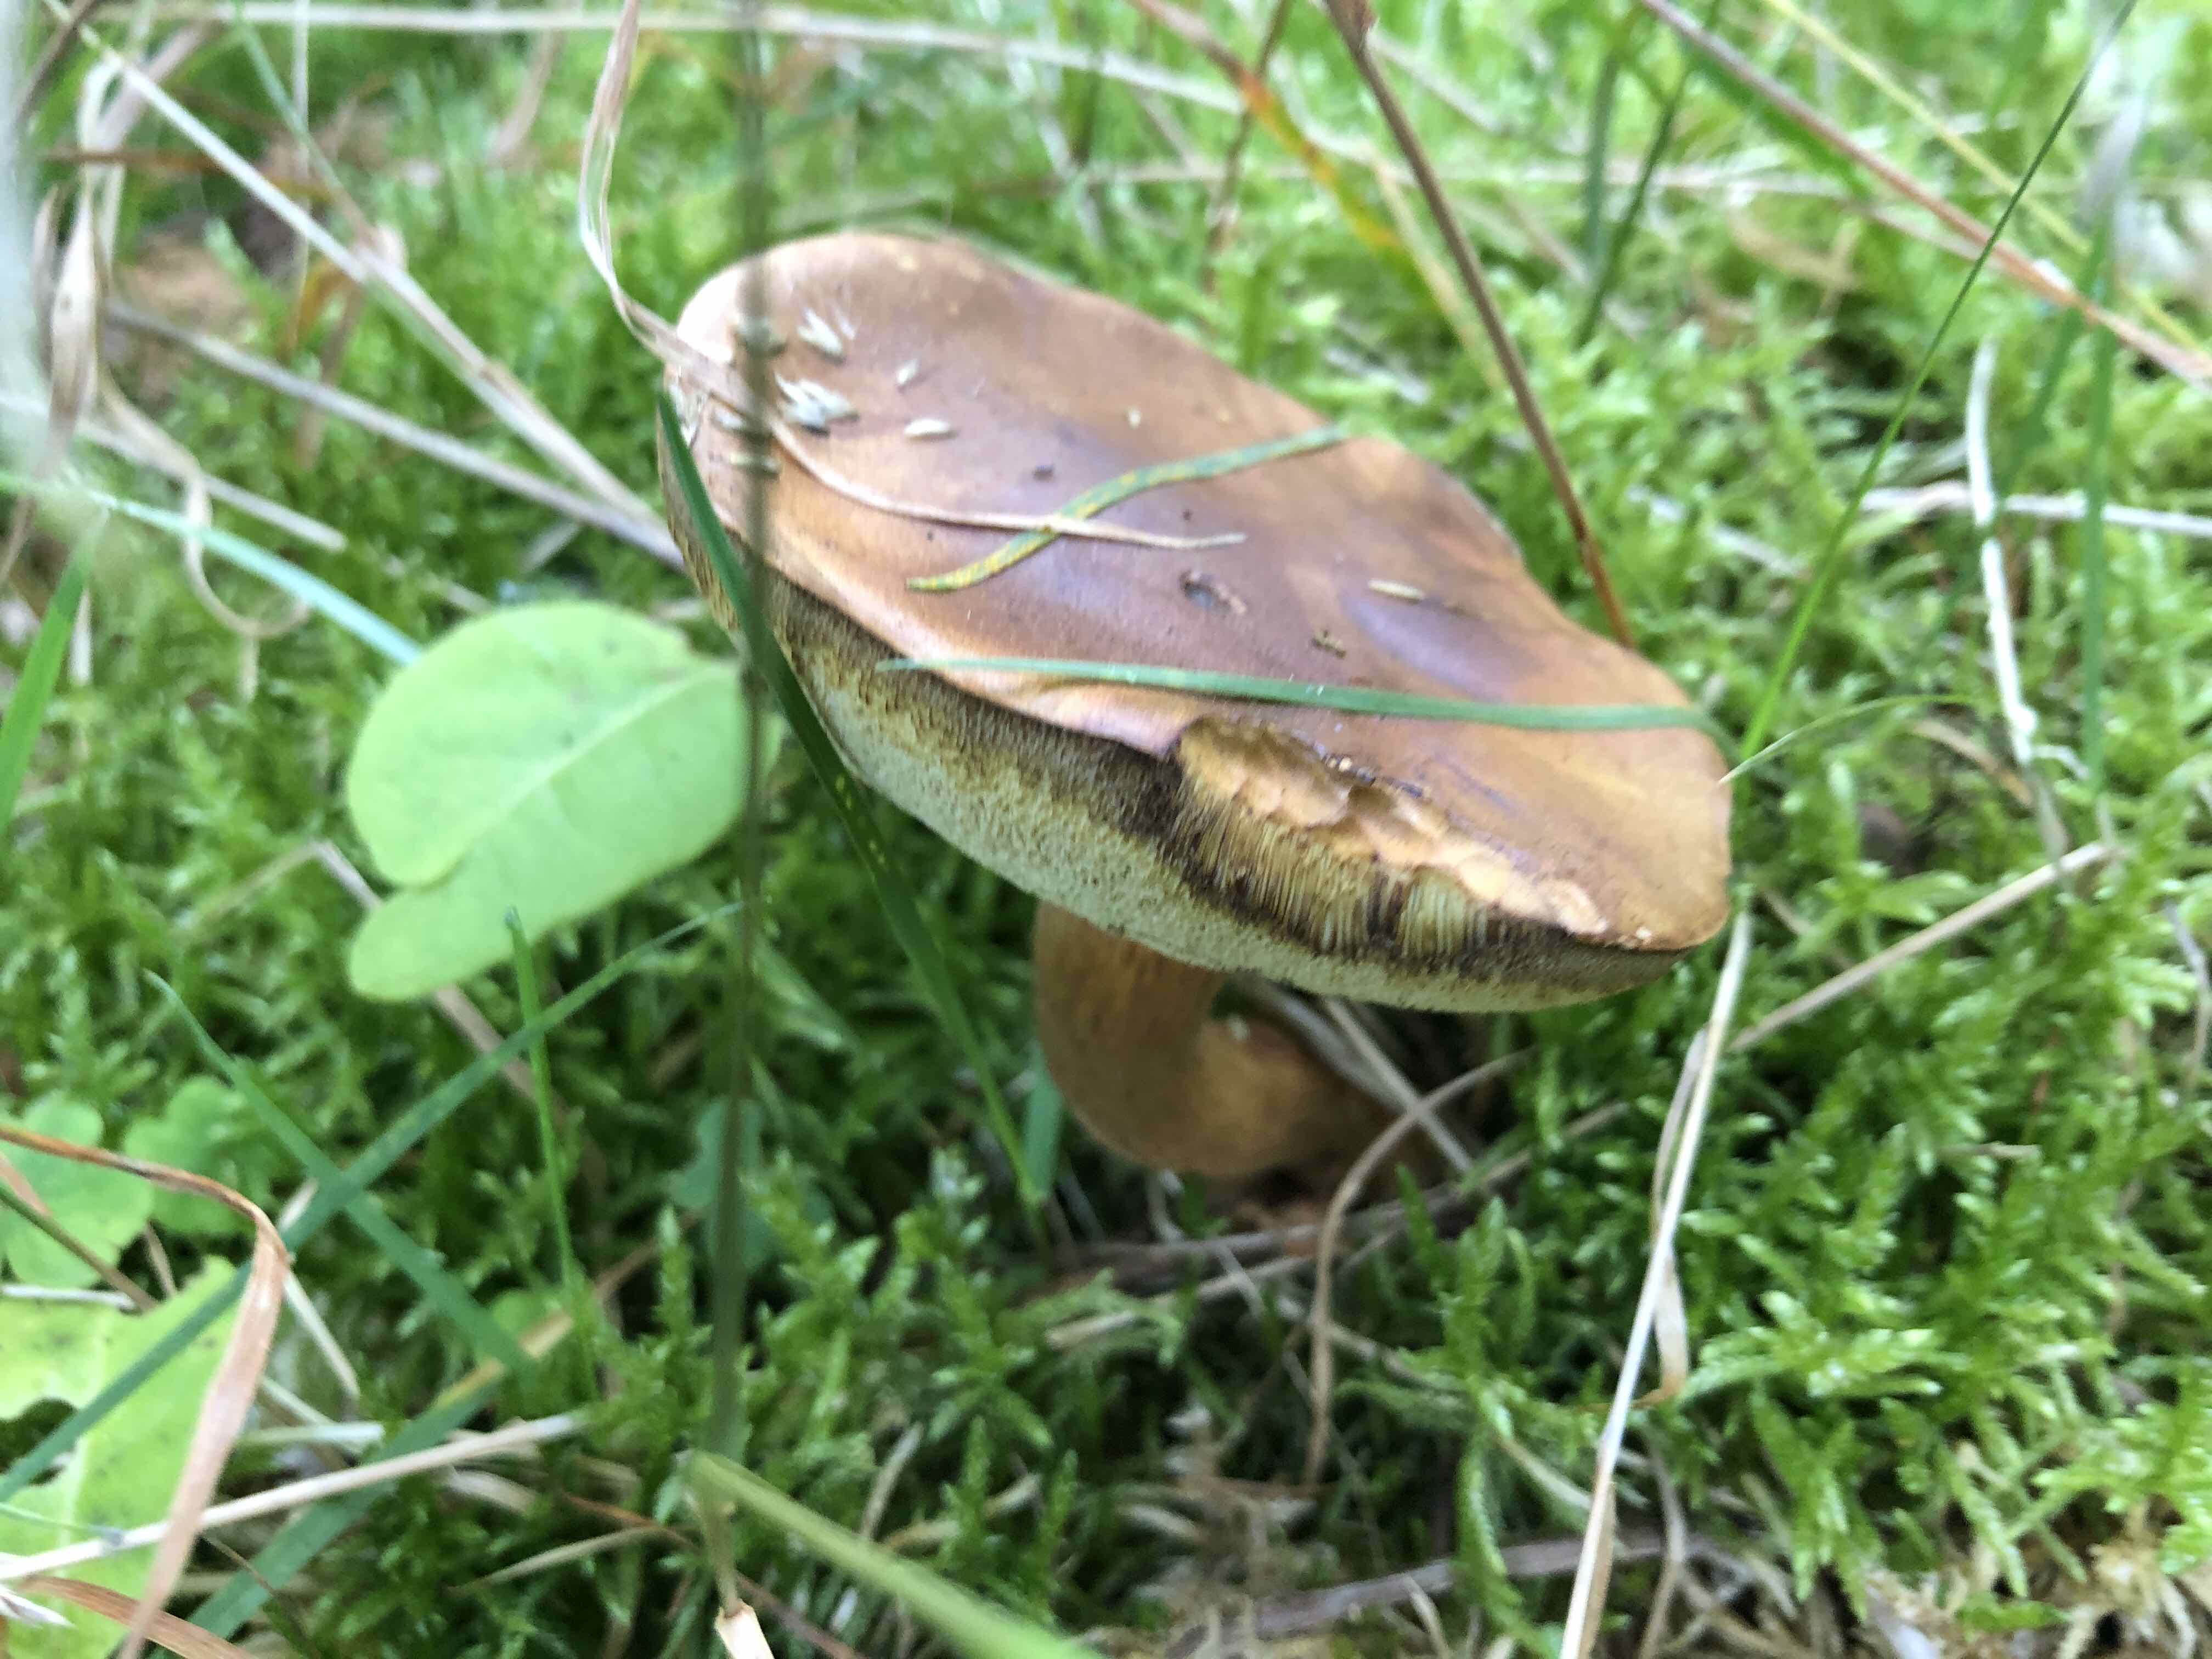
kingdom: Fungi
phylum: Basidiomycota
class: Agaricomycetes
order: Boletales
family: Boletaceae
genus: Imleria
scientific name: Imleria badia
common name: brunstokket rørhat
